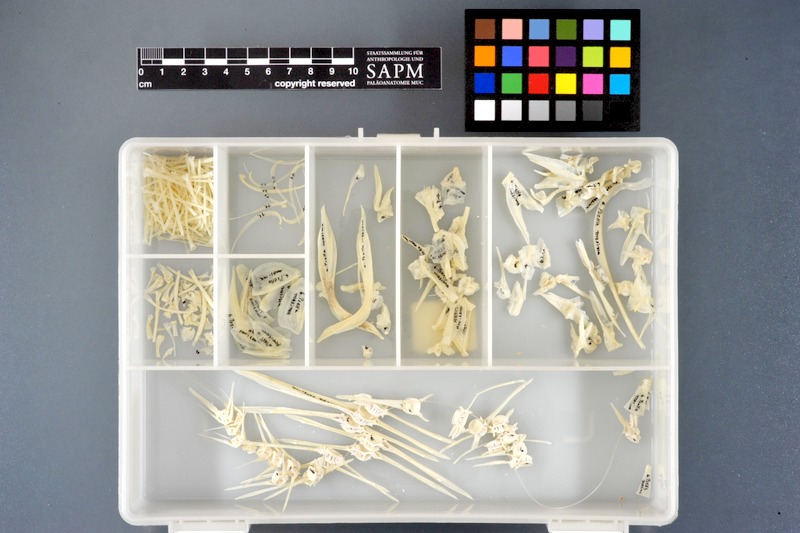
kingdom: Animalia
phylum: Chordata
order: Pleuronectiformes
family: Scophthalmidae
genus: Scophthalmus
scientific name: Scophthalmus maximus
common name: Turbot
